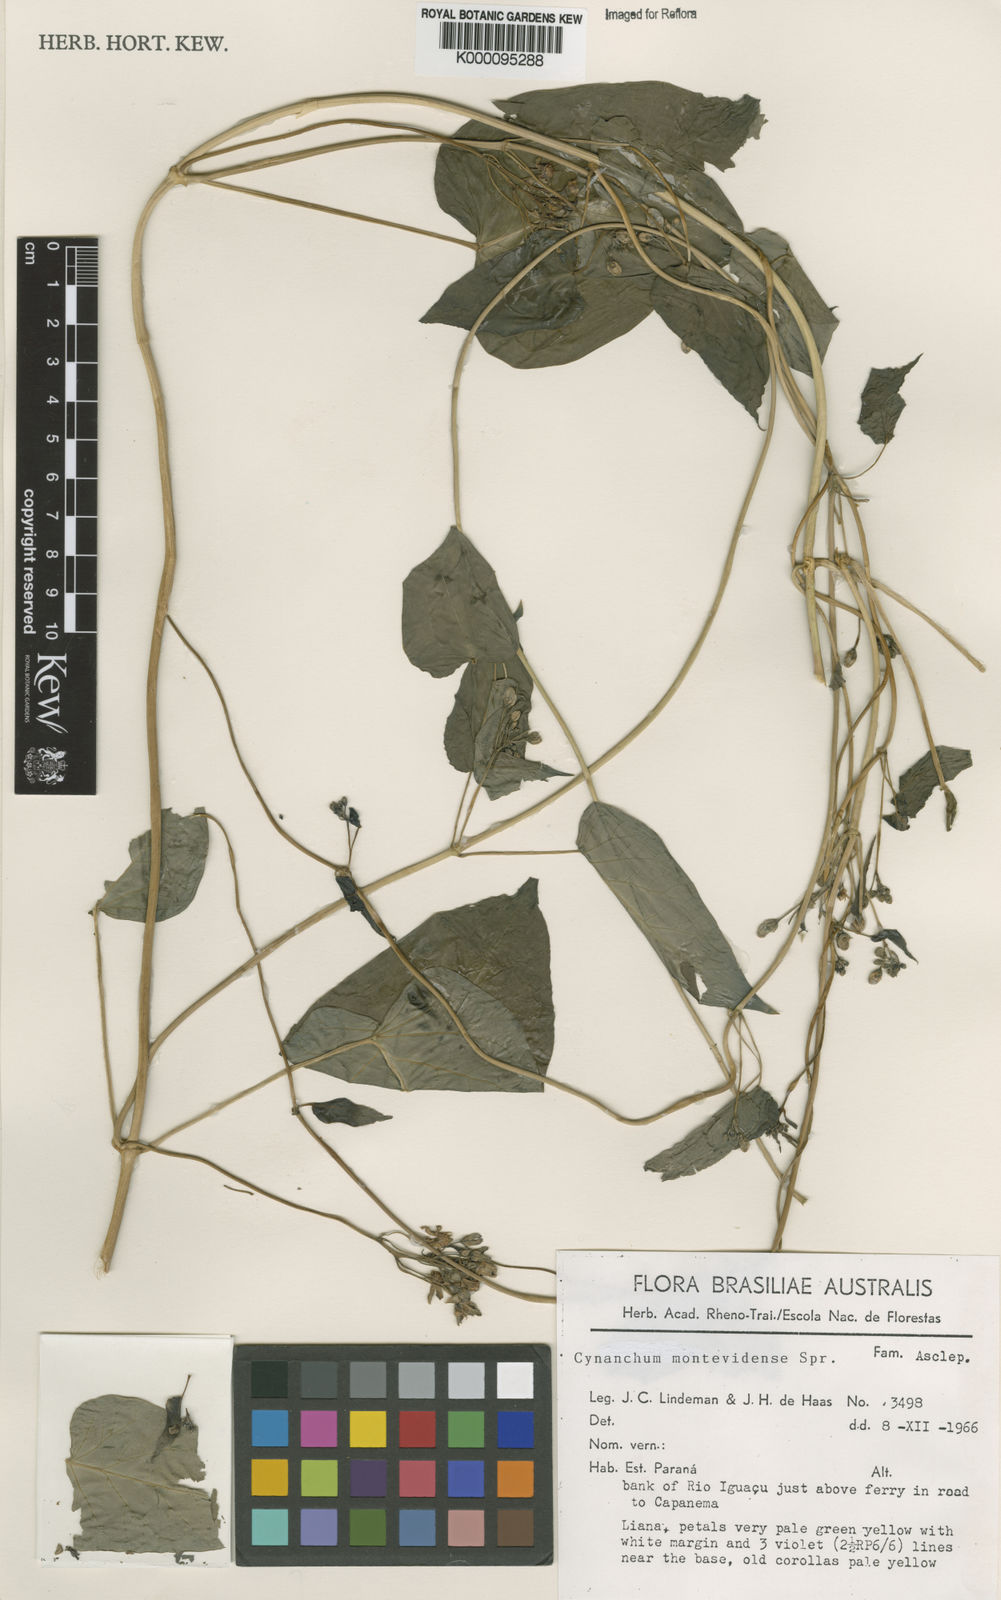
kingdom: Plantae
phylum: Tracheophyta
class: Magnoliopsida
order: Gentianales
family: Apocynaceae
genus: Cynanchum
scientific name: Cynanchum montevidense
